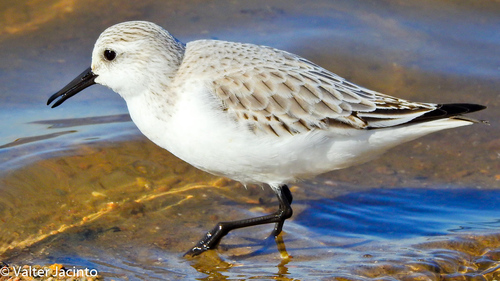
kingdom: Animalia
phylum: Chordata
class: Aves
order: Charadriiformes
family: Scolopacidae
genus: Calidris
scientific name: Calidris alba
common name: Sanderling
